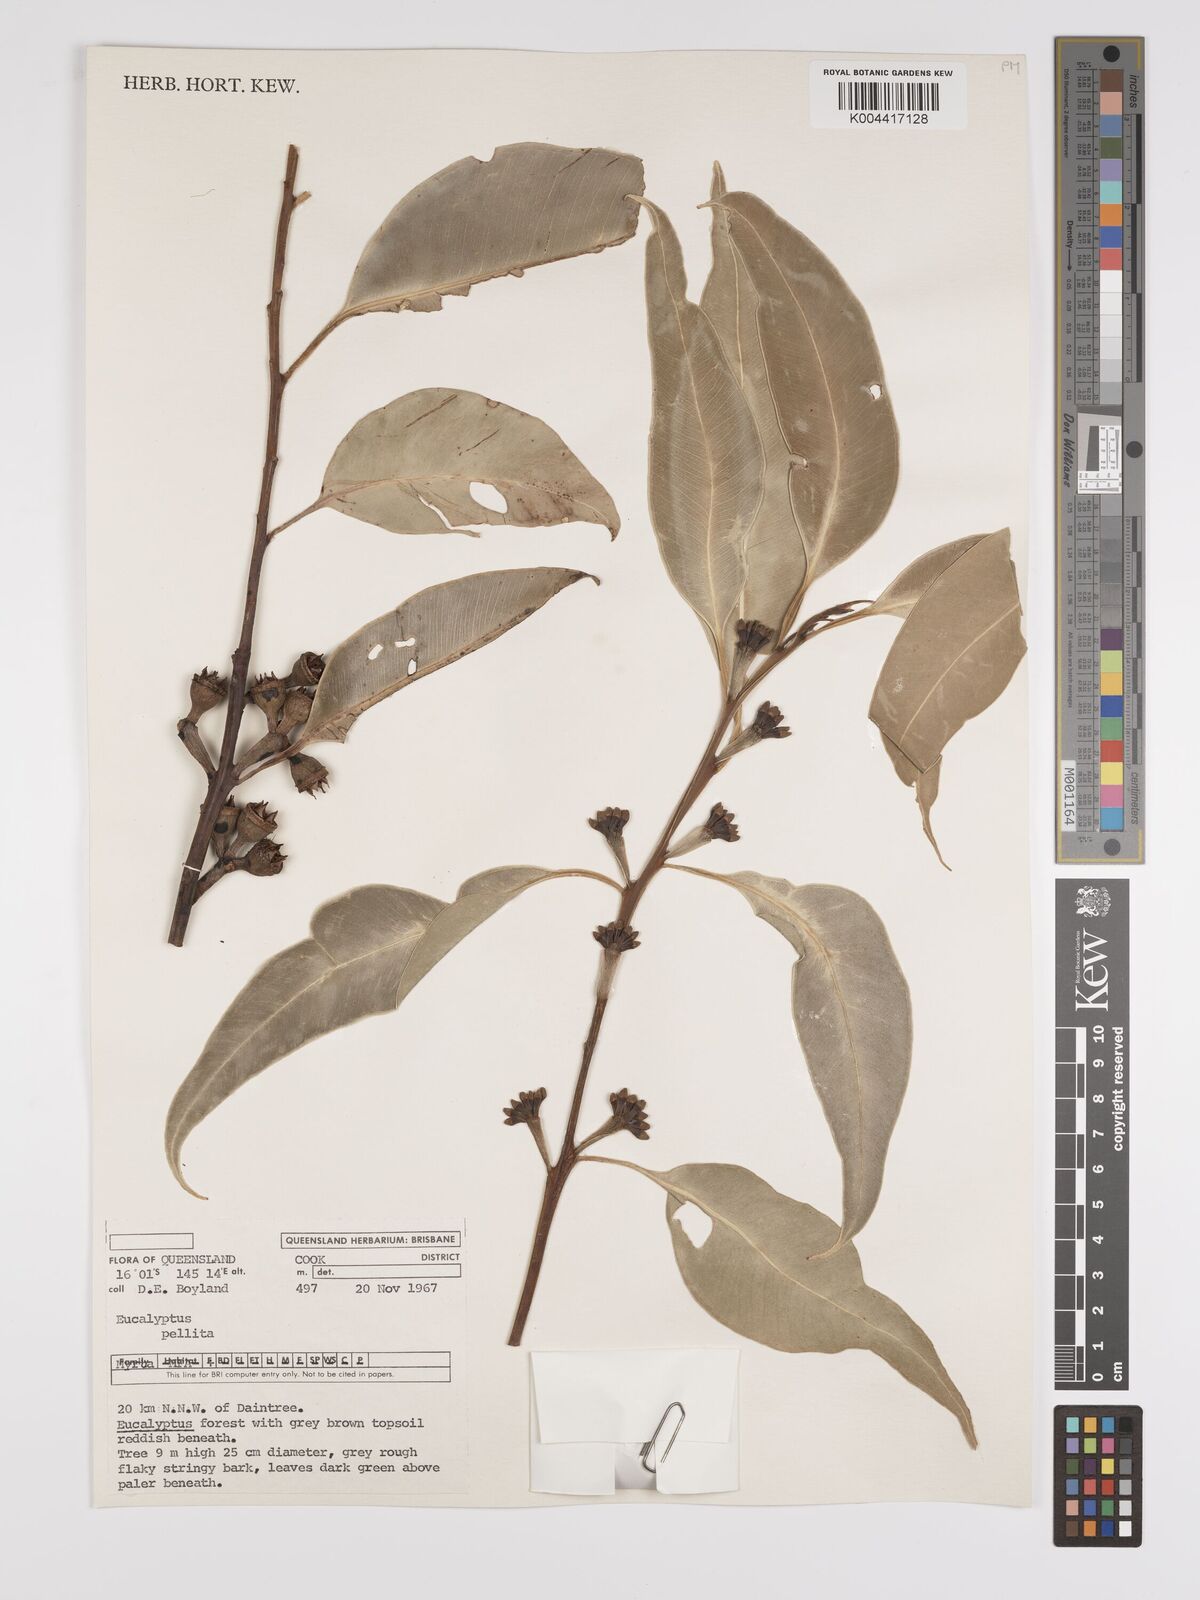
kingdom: Plantae
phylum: Tracheophyta
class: Magnoliopsida
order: Myrtales
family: Myrtaceae
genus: Eucalyptus
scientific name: Eucalyptus pellita
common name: Large-fruited-red-mahogany
